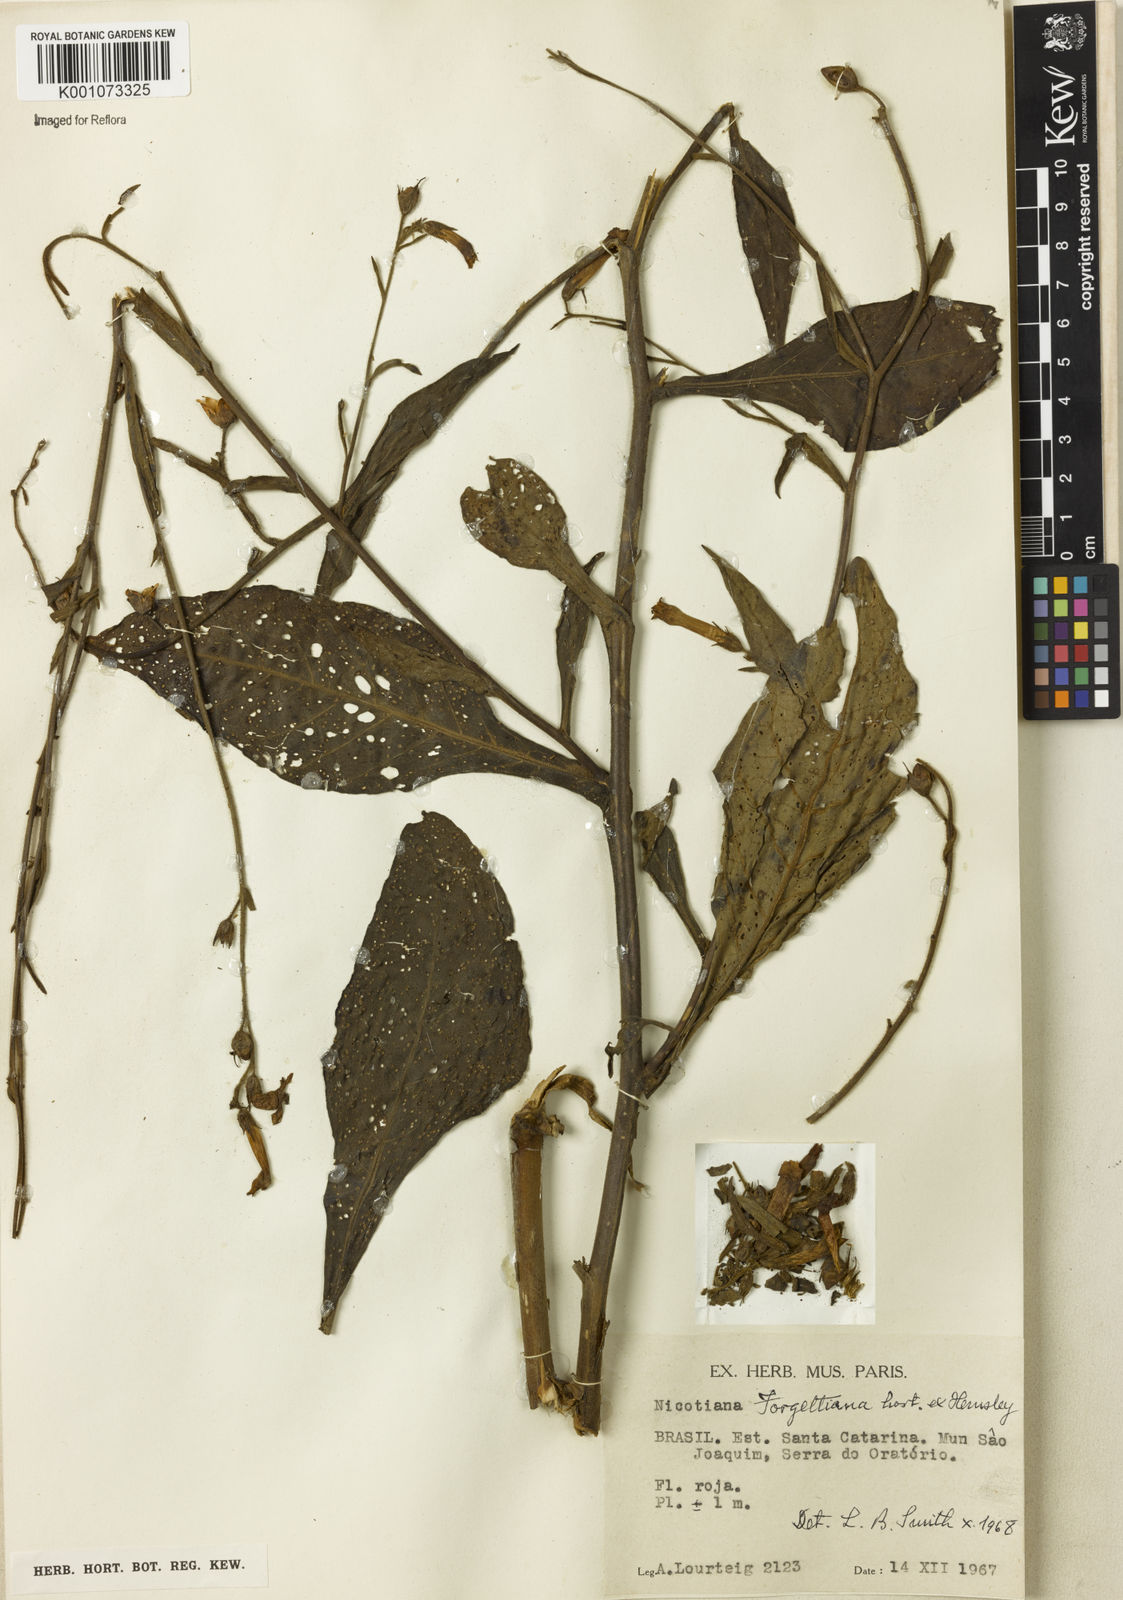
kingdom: Plantae
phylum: Tracheophyta
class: Magnoliopsida
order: Solanales
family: Solanaceae
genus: Nicotiana
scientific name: Nicotiana
